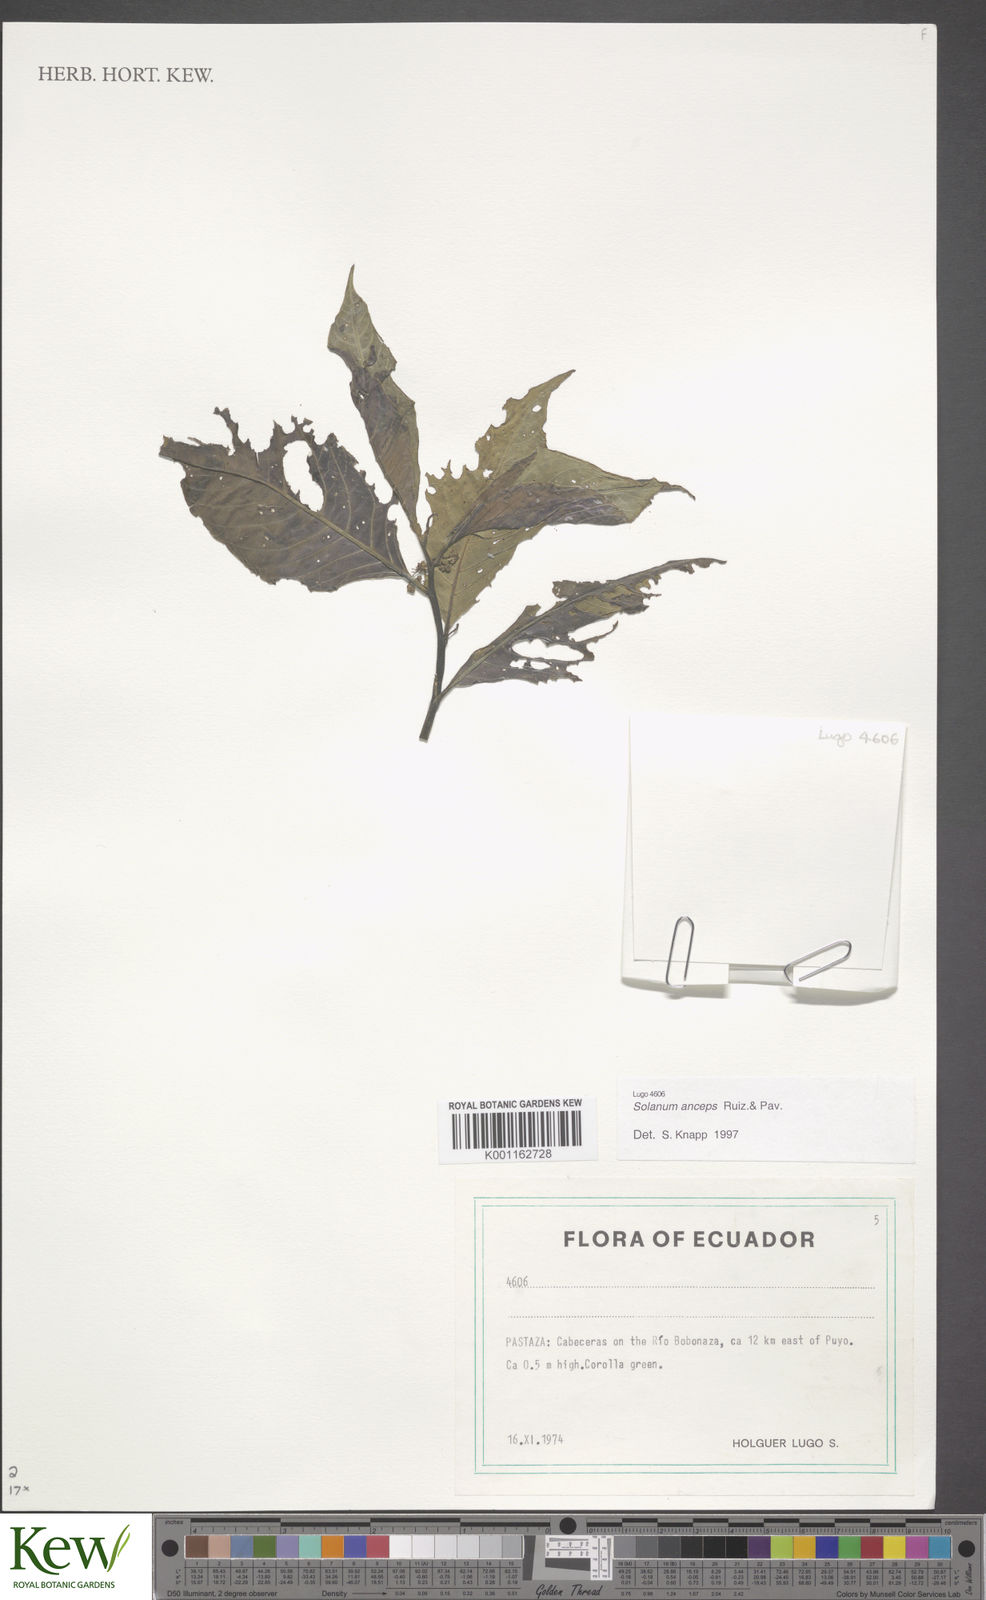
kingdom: Plantae
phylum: Tracheophyta
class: Magnoliopsida
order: Solanales
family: Solanaceae
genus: Solanum
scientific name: Solanum anceps
